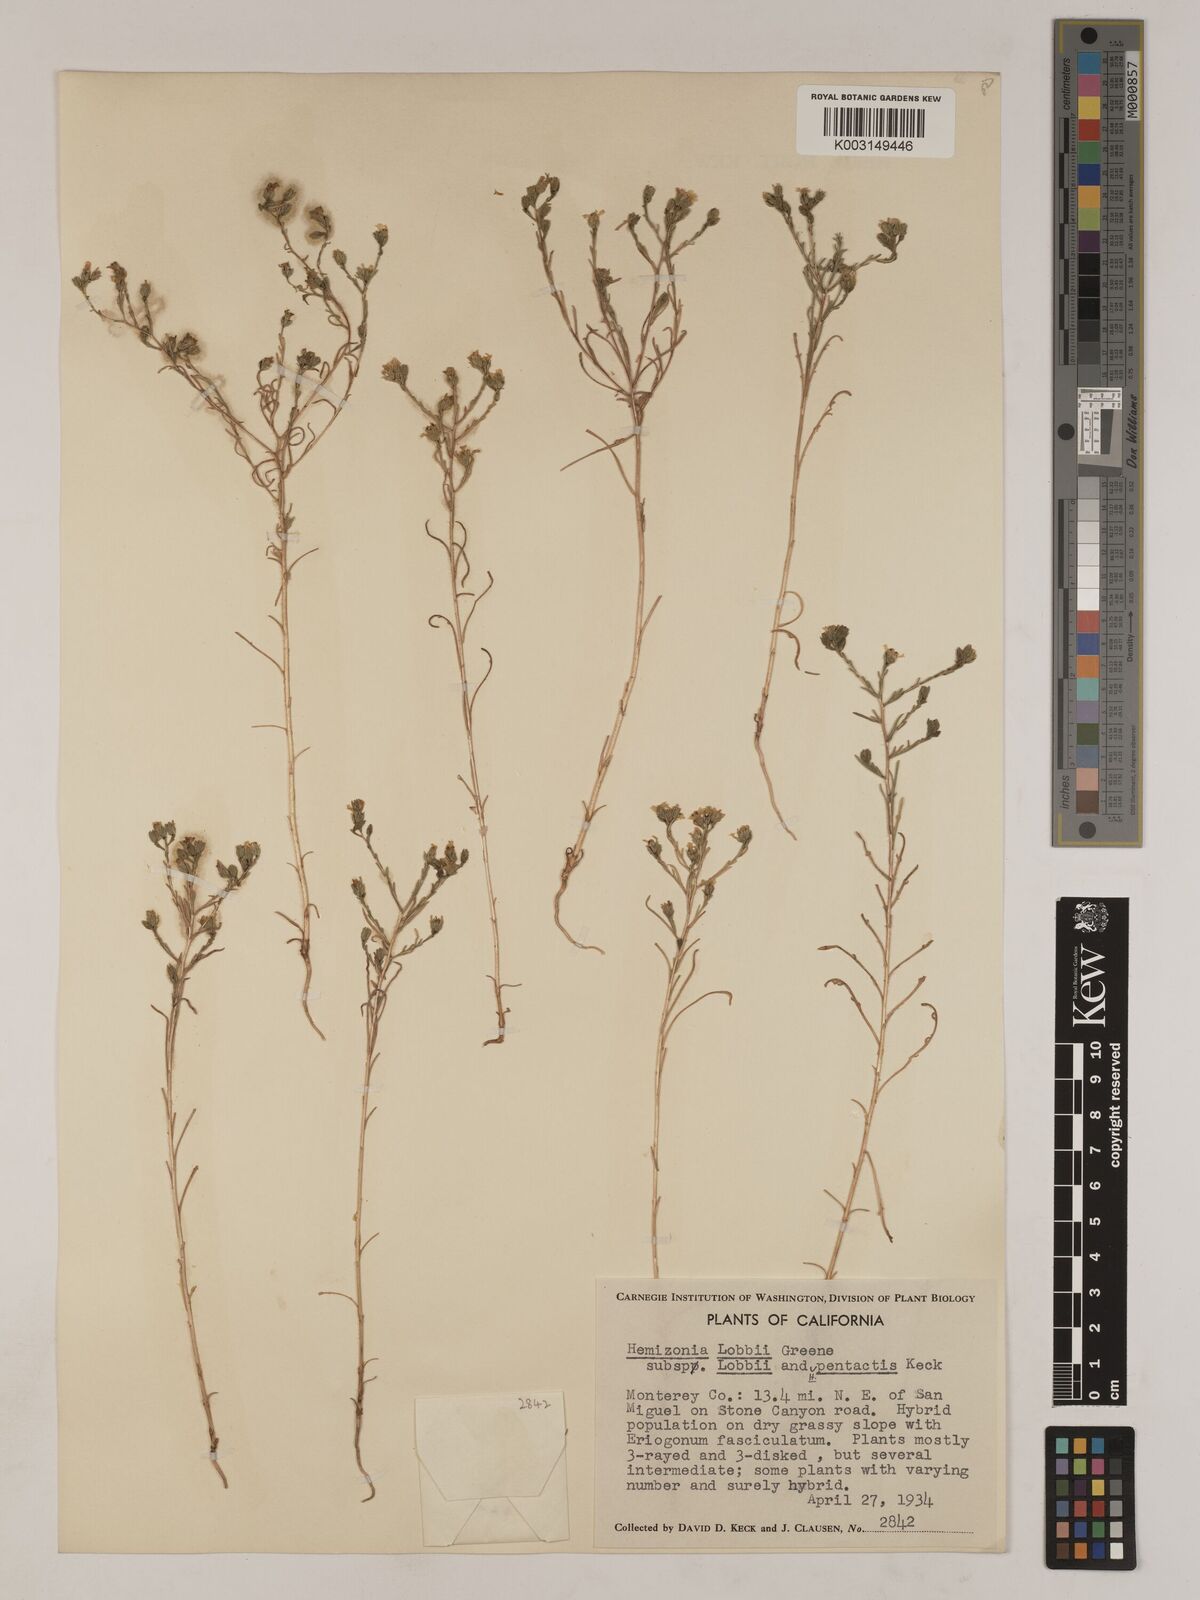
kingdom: Plantae
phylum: Tracheophyta
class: Magnoliopsida
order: Asterales
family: Asteraceae
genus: Deinandra
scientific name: Deinandra lobbii
